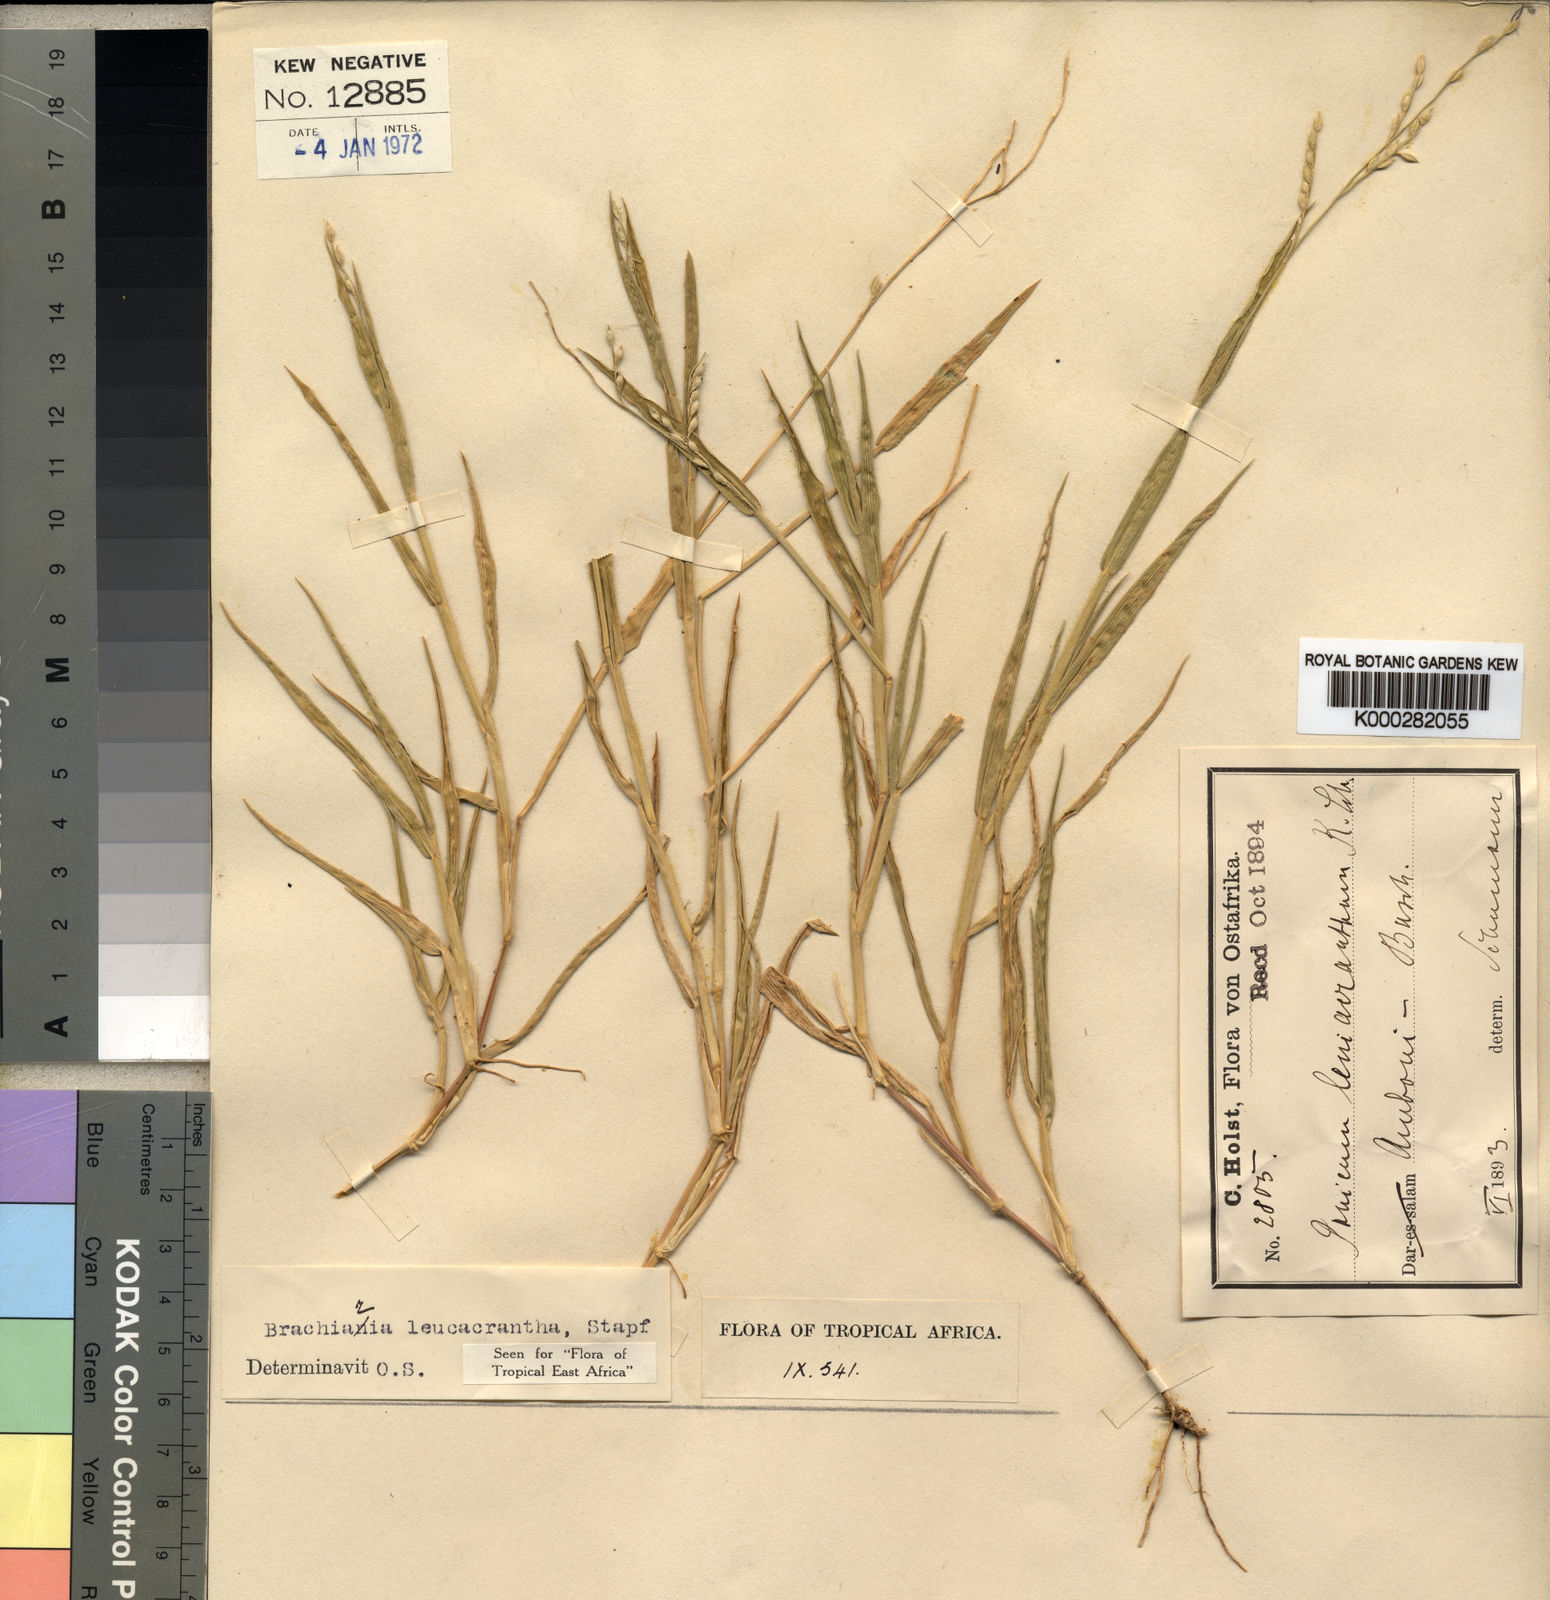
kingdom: Plantae
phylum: Tracheophyta
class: Liliopsida
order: Poales
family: Poaceae
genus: Urochloa
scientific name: Urochloa xantholeuca
